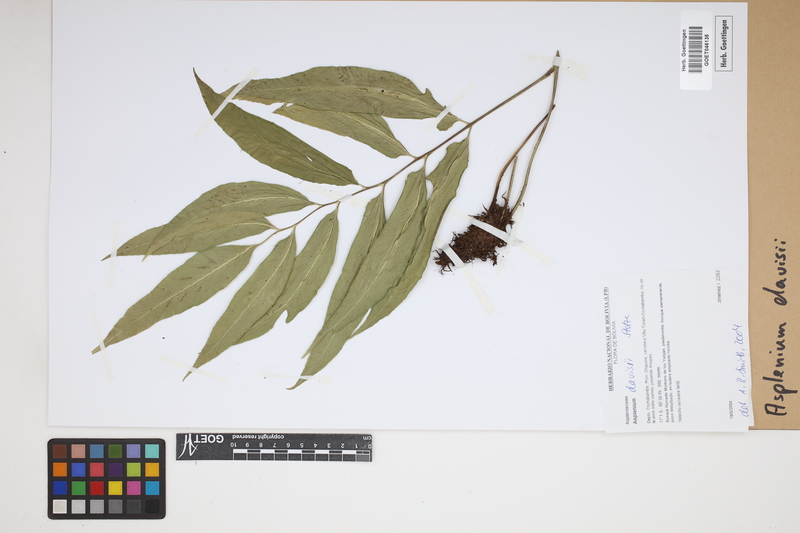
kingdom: Plantae
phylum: Tracheophyta
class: Polypodiopsida
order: Polypodiales
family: Aspleniaceae
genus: Asplenium
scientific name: Asplenium davisii
